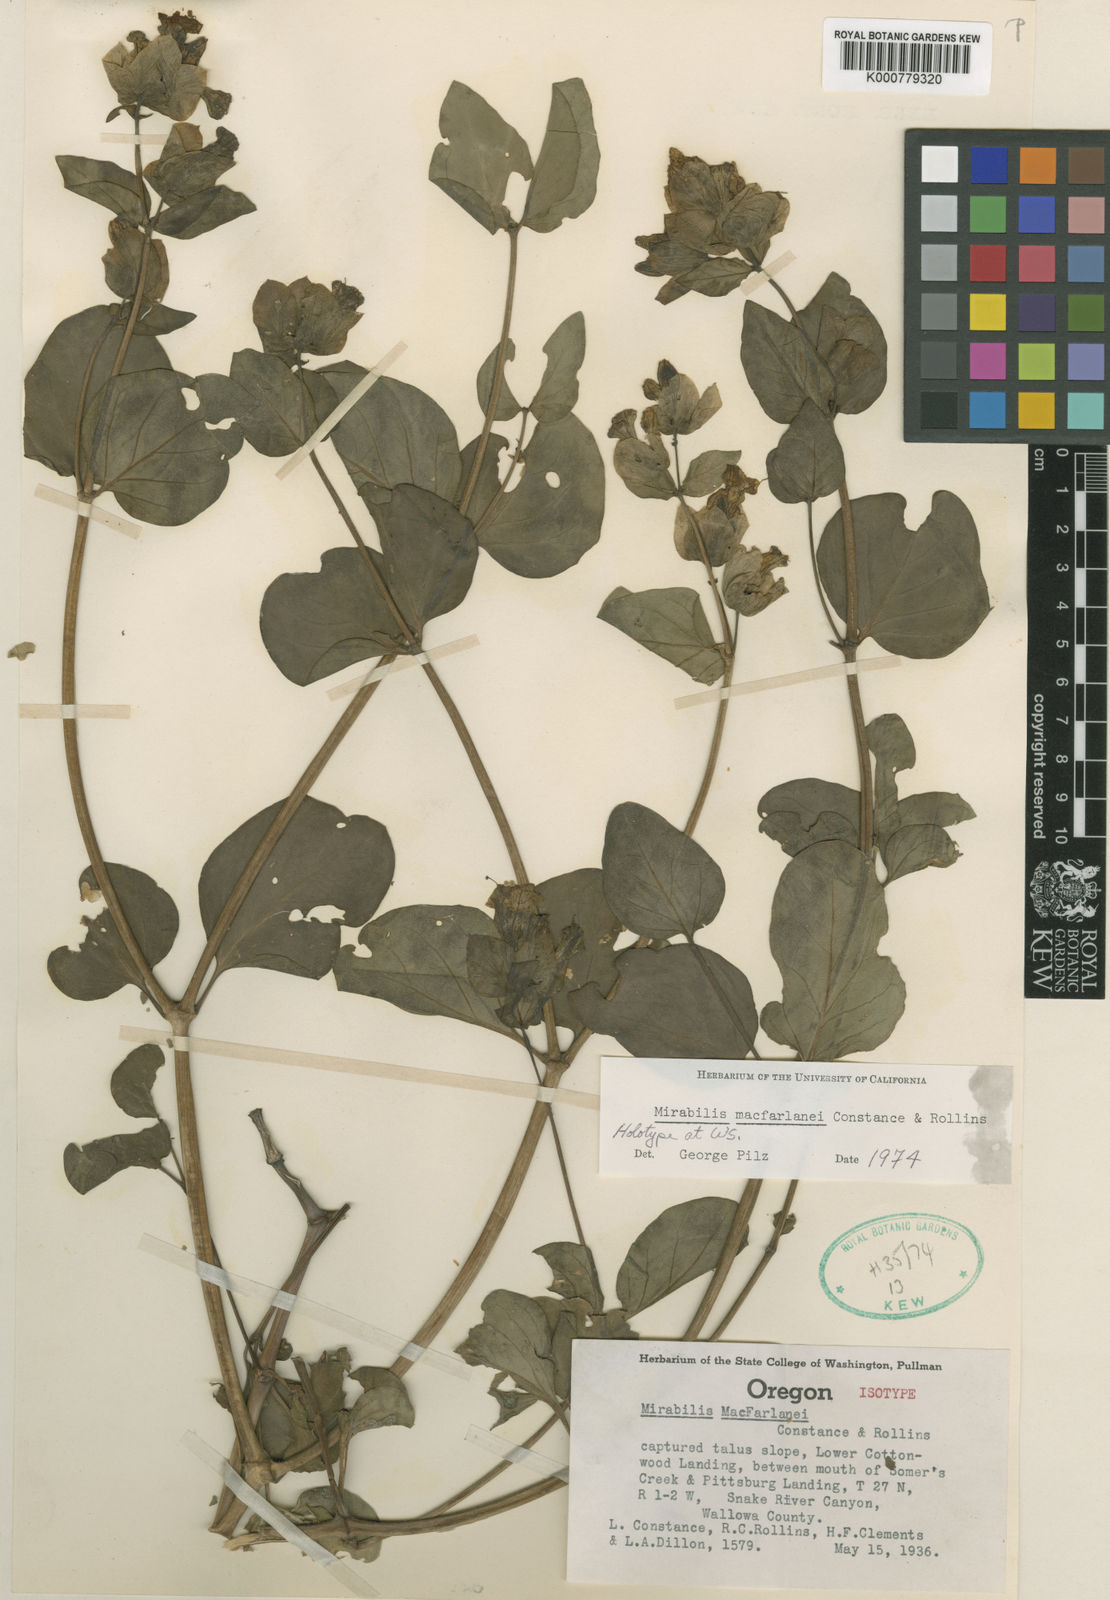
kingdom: Plantae
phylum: Tracheophyta
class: Magnoliopsida
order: Caryophyllales
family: Nyctaginaceae
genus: Mirabilis
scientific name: Mirabilis macfarlanei
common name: Macfarlane's four-o'clock
